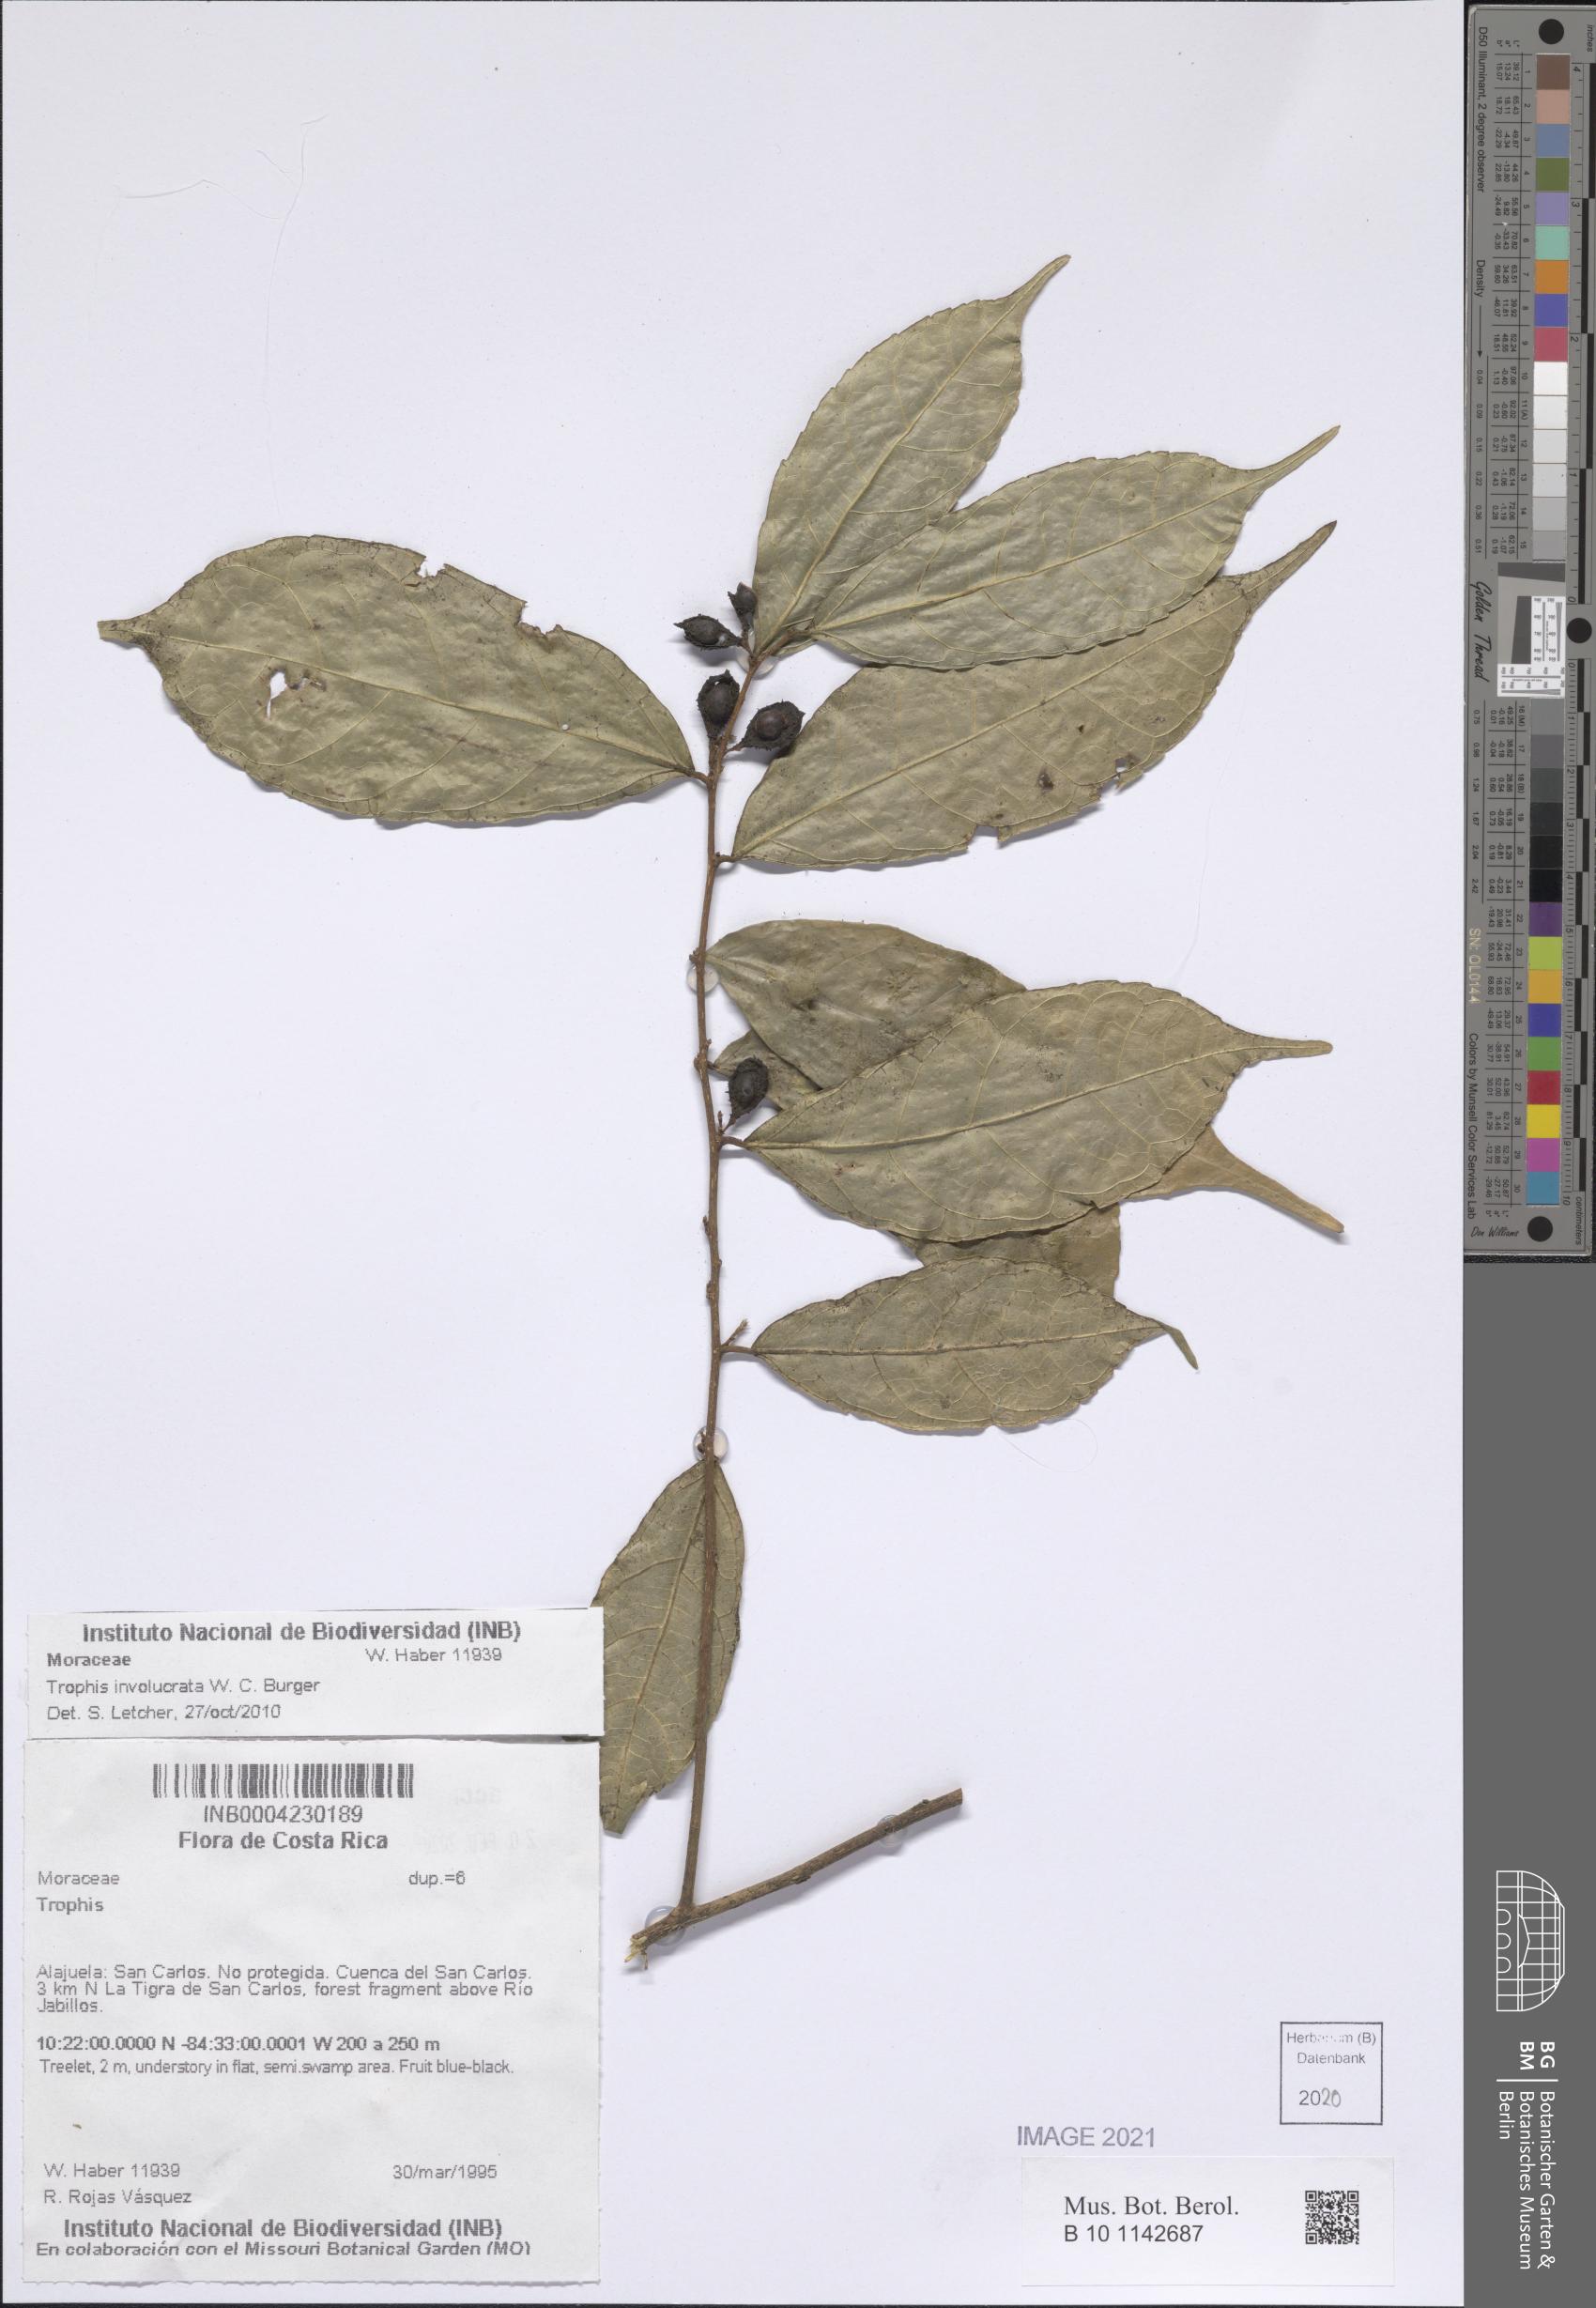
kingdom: Plantae
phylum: Tracheophyta
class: Magnoliopsida
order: Rosales
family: Moraceae
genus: Trophis
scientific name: Trophis involucrata
